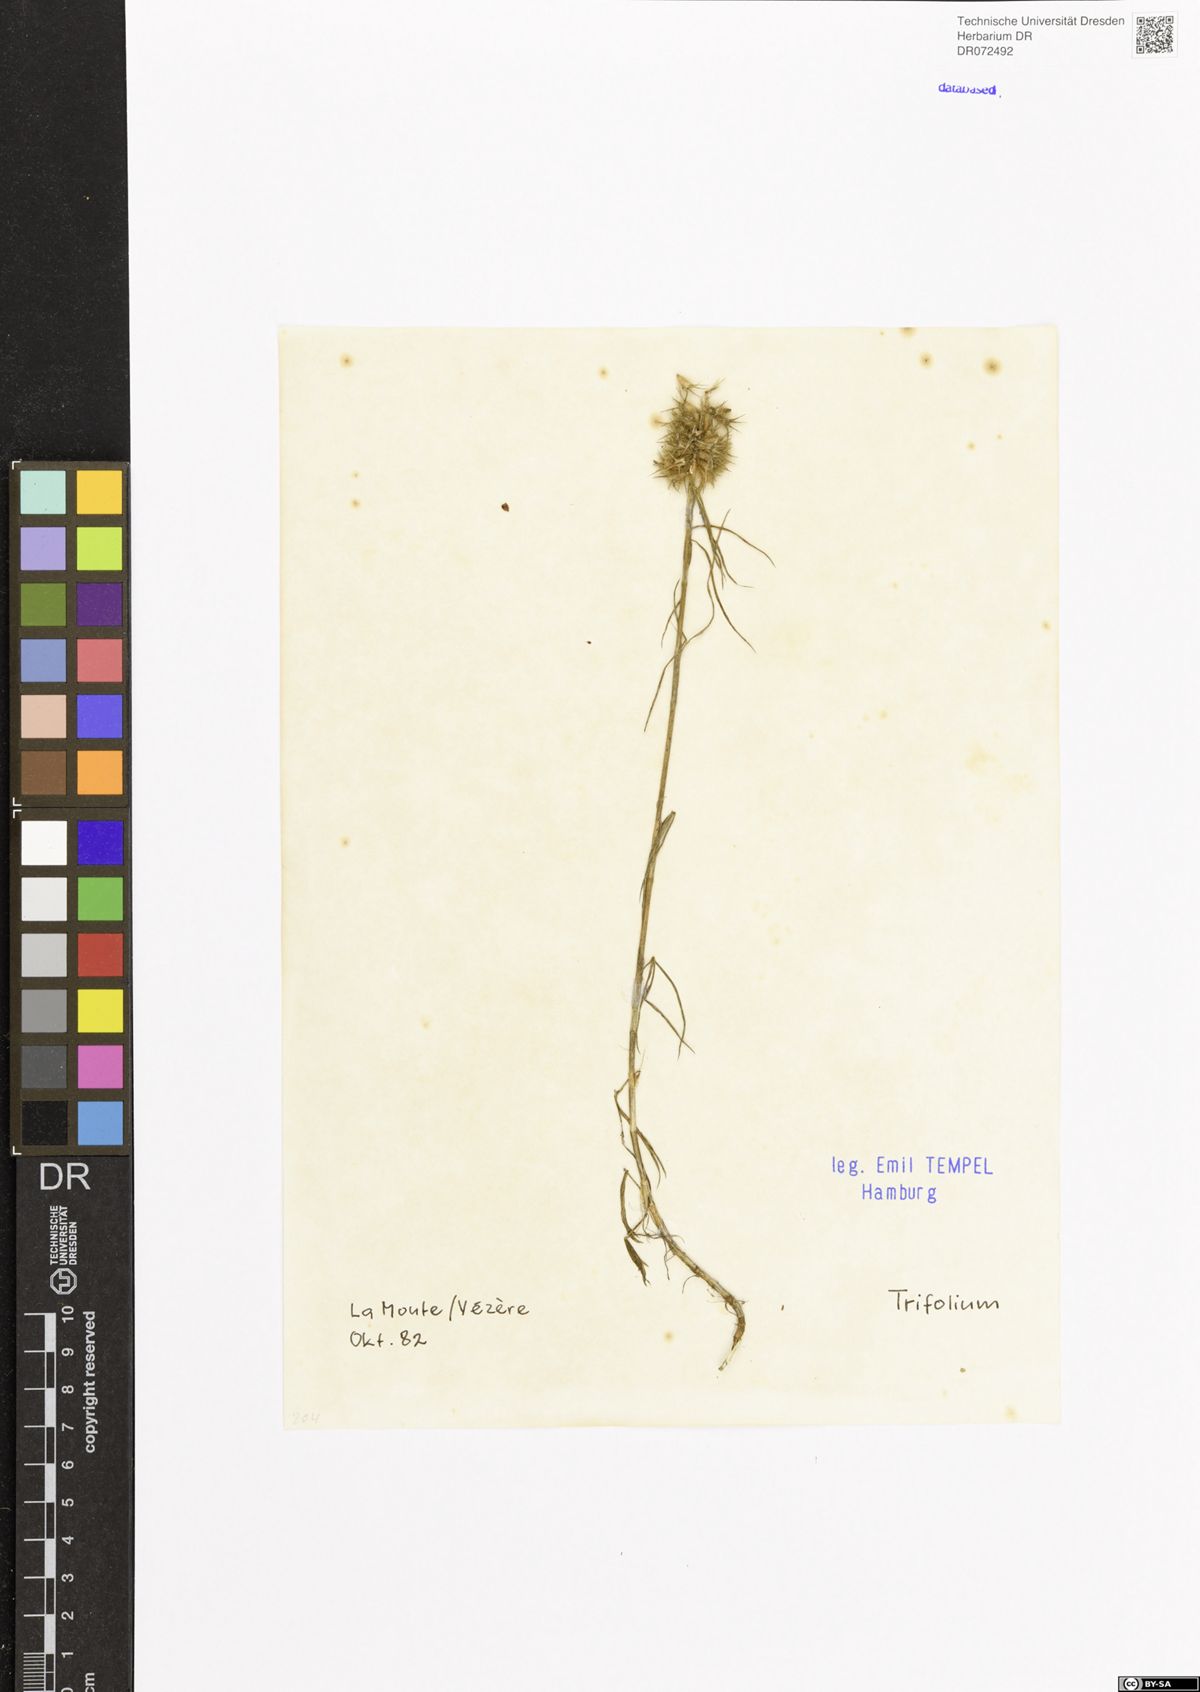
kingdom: Plantae
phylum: Tracheophyta
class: Magnoliopsida
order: Fabales
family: Fabaceae
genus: Trifolium
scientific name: Trifolium
